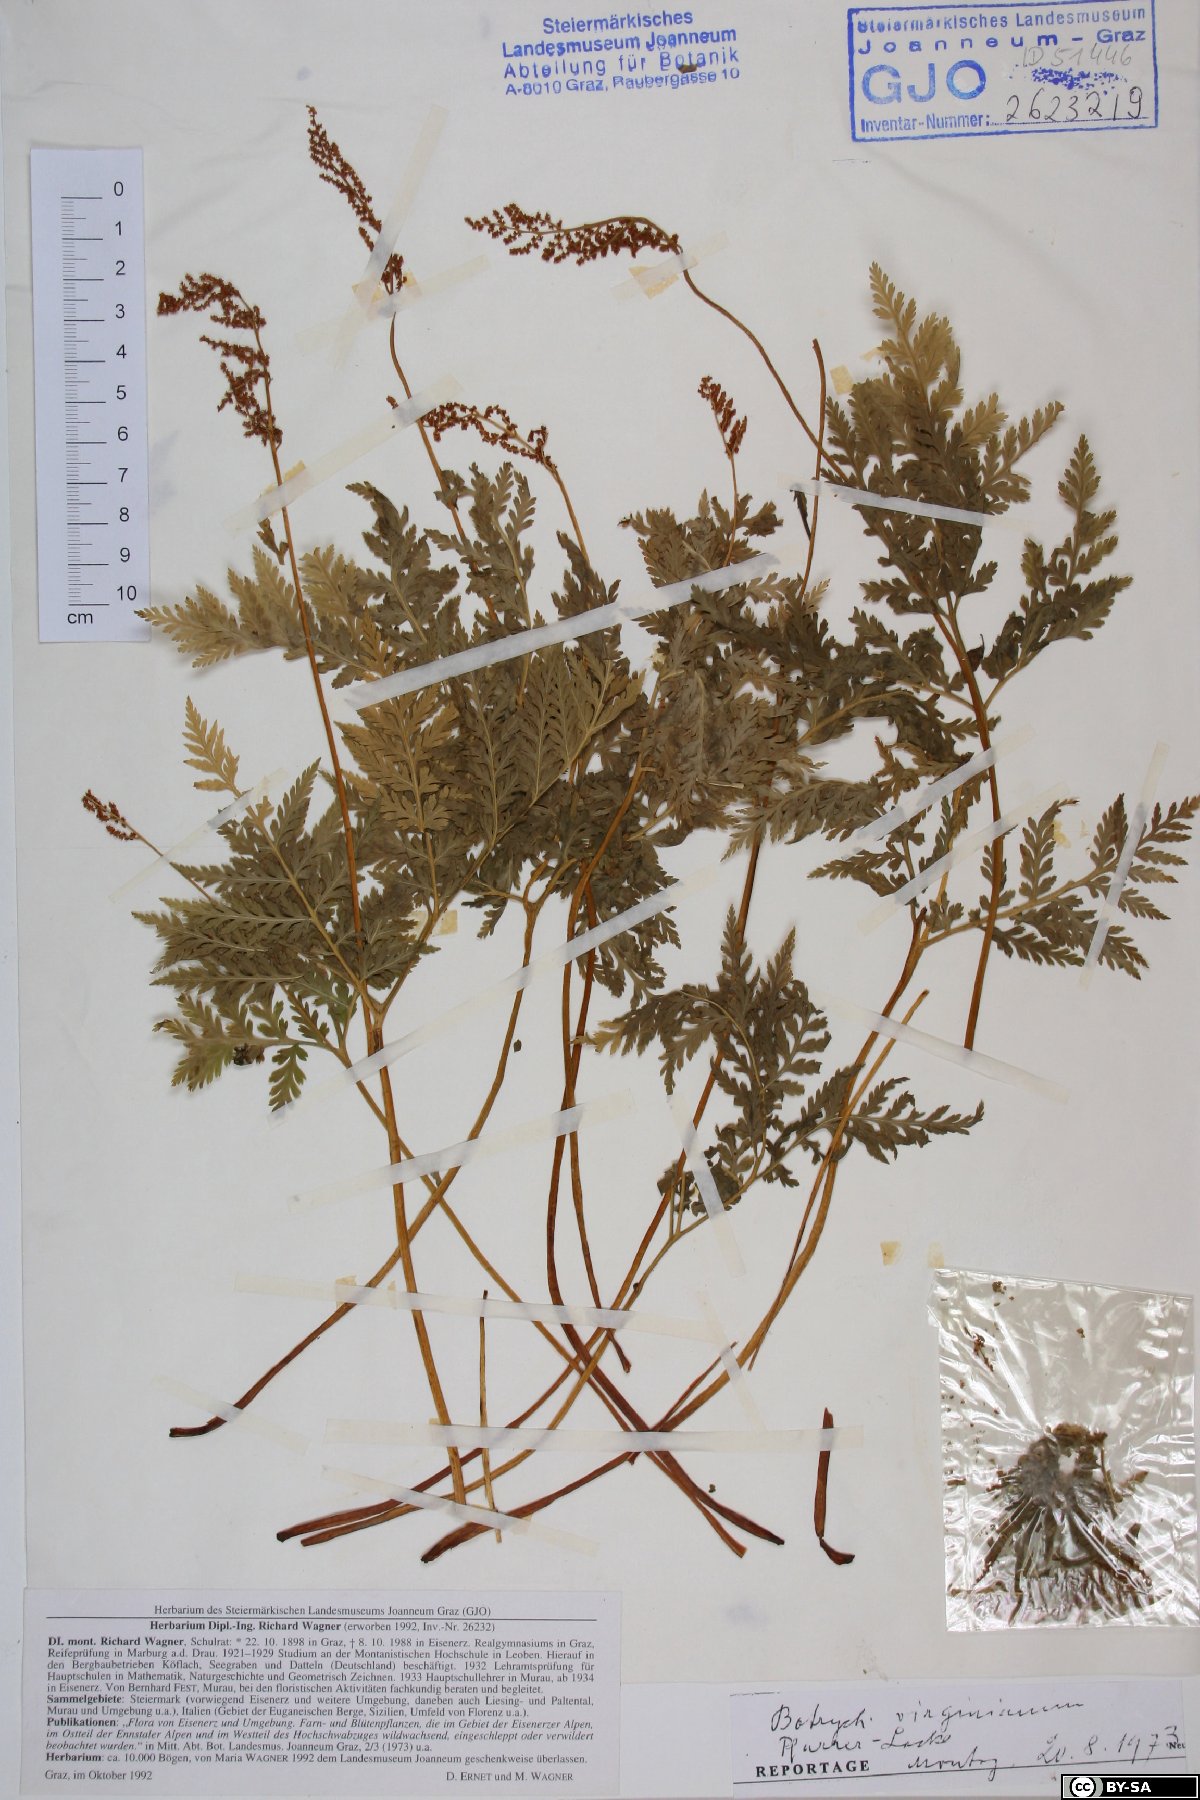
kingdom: Plantae
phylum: Tracheophyta
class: Polypodiopsida
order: Ophioglossales
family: Ophioglossaceae
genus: Botrypus
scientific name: Botrypus virginianus
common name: Common grapefern
